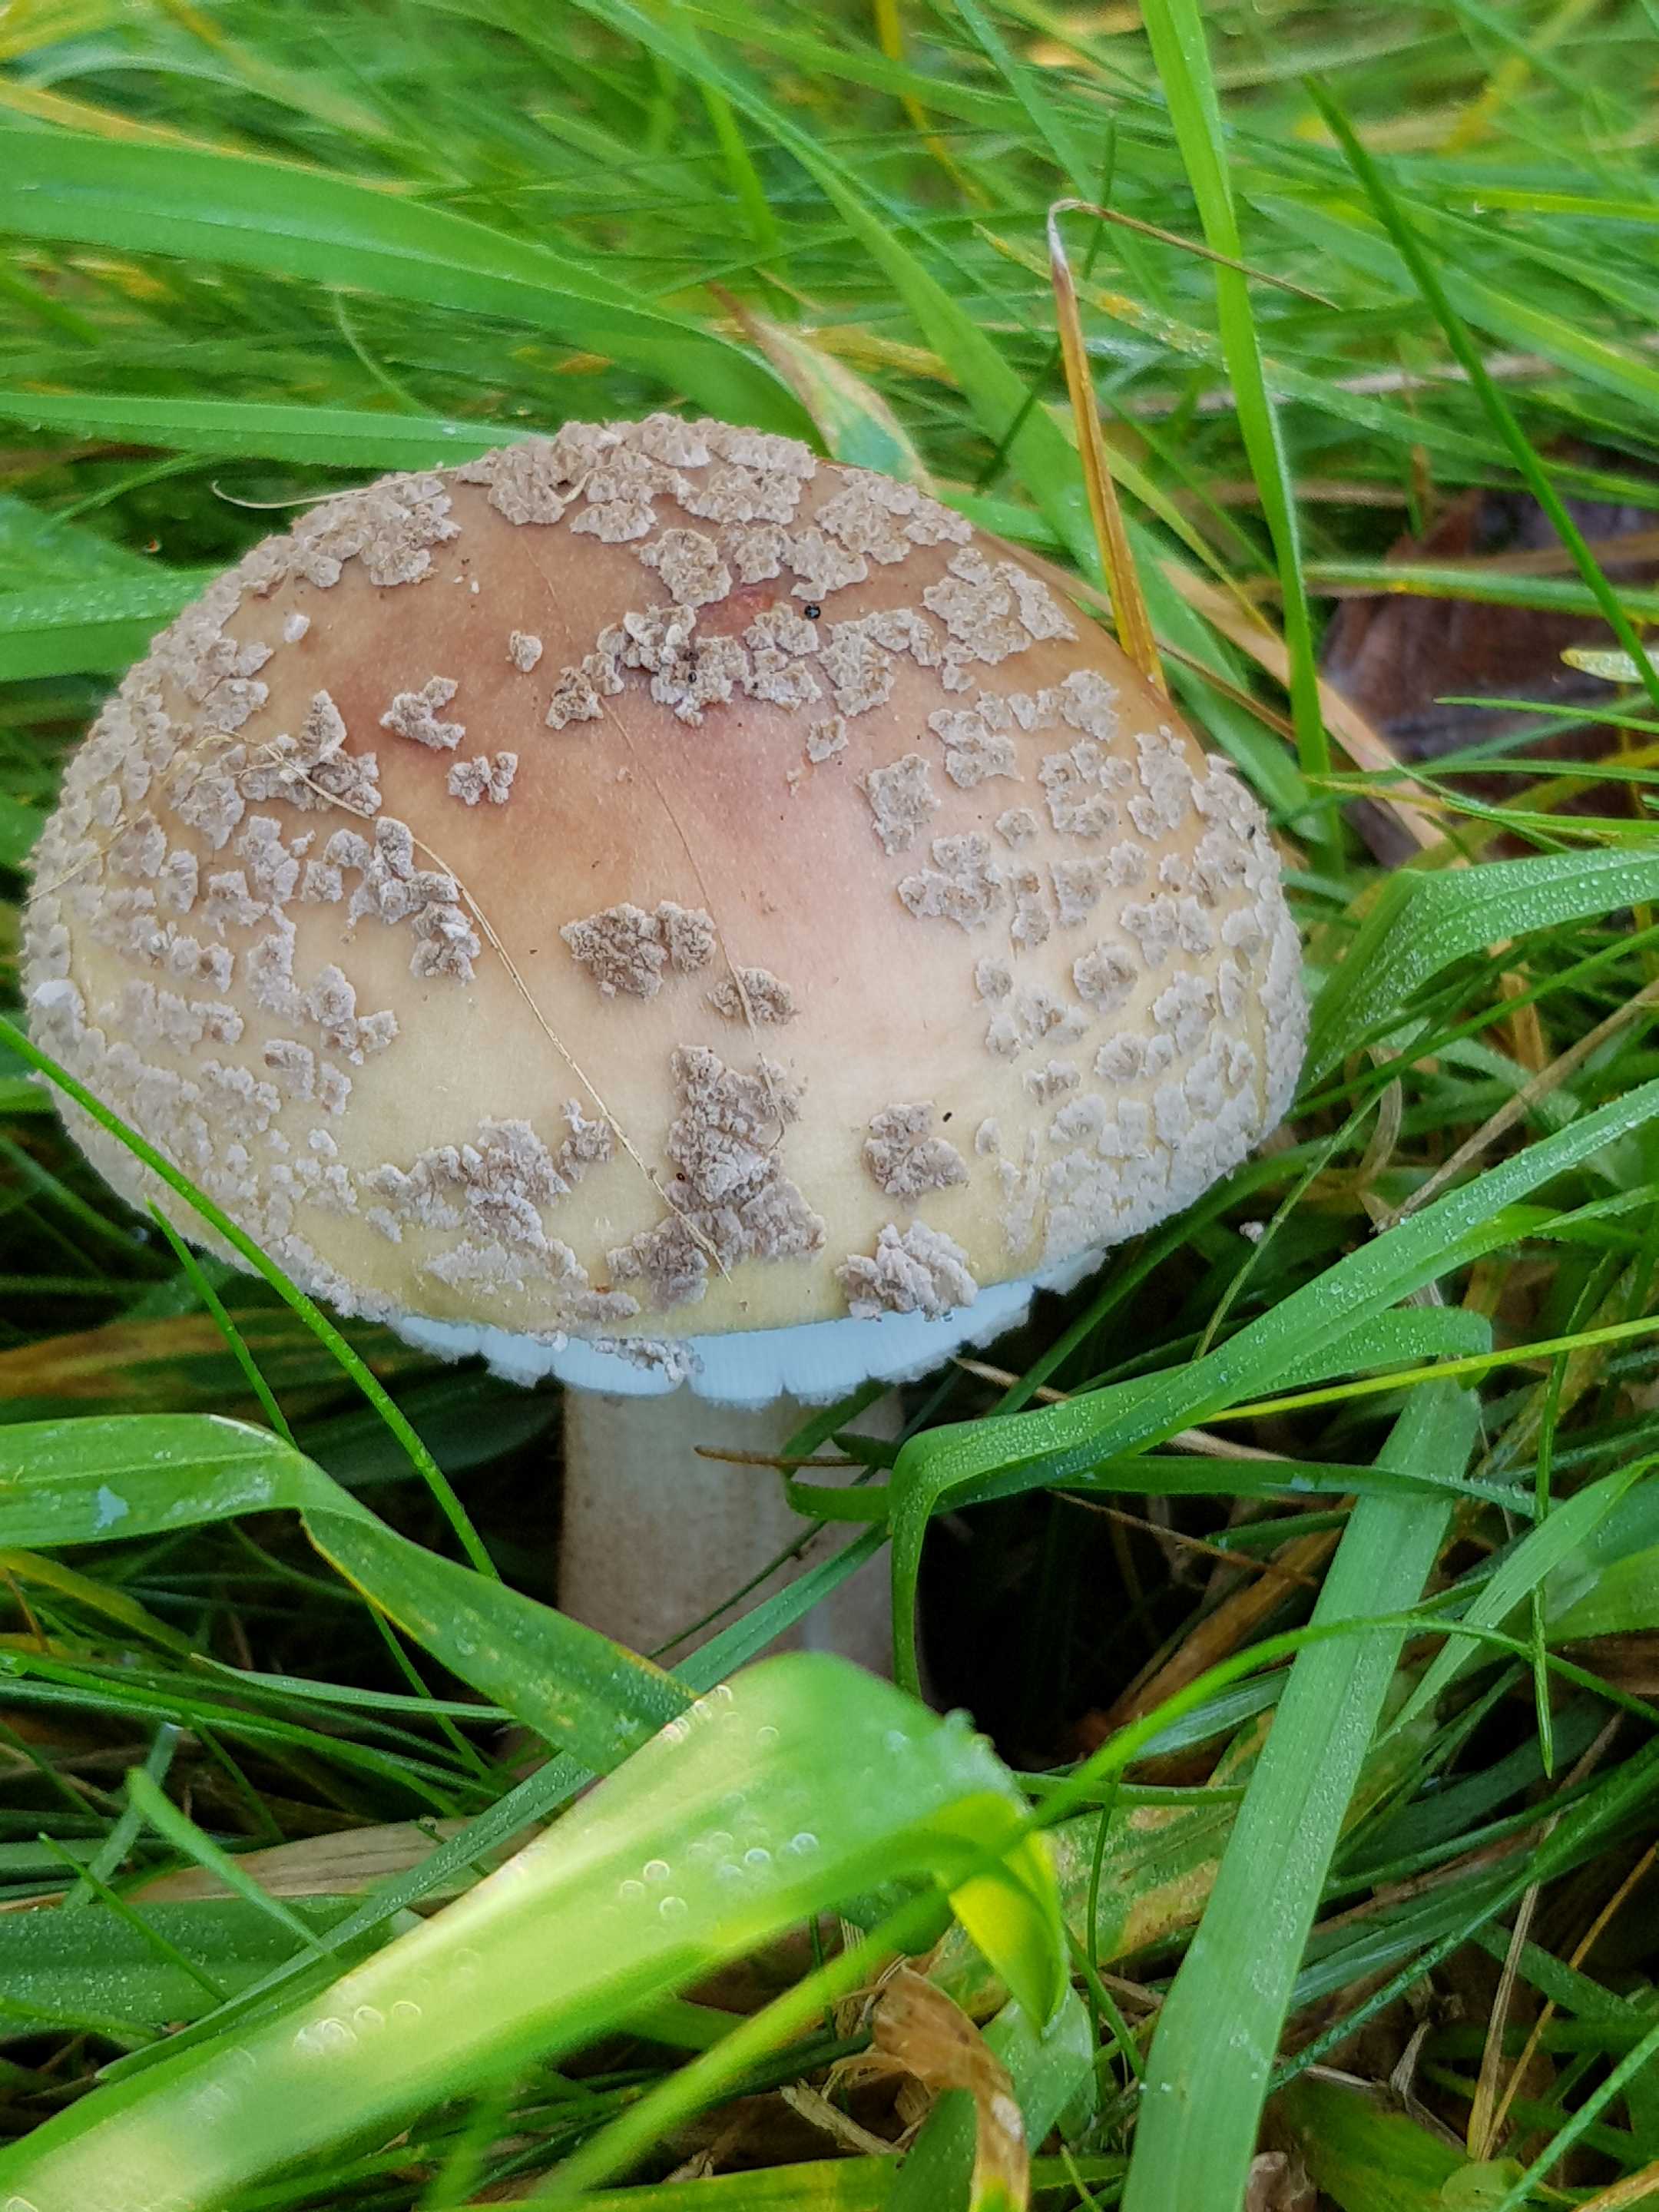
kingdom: Fungi
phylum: Basidiomycota
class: Agaricomycetes
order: Agaricales
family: Amanitaceae
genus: Amanita
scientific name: Amanita rubescens
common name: rødmende fluesvamp
